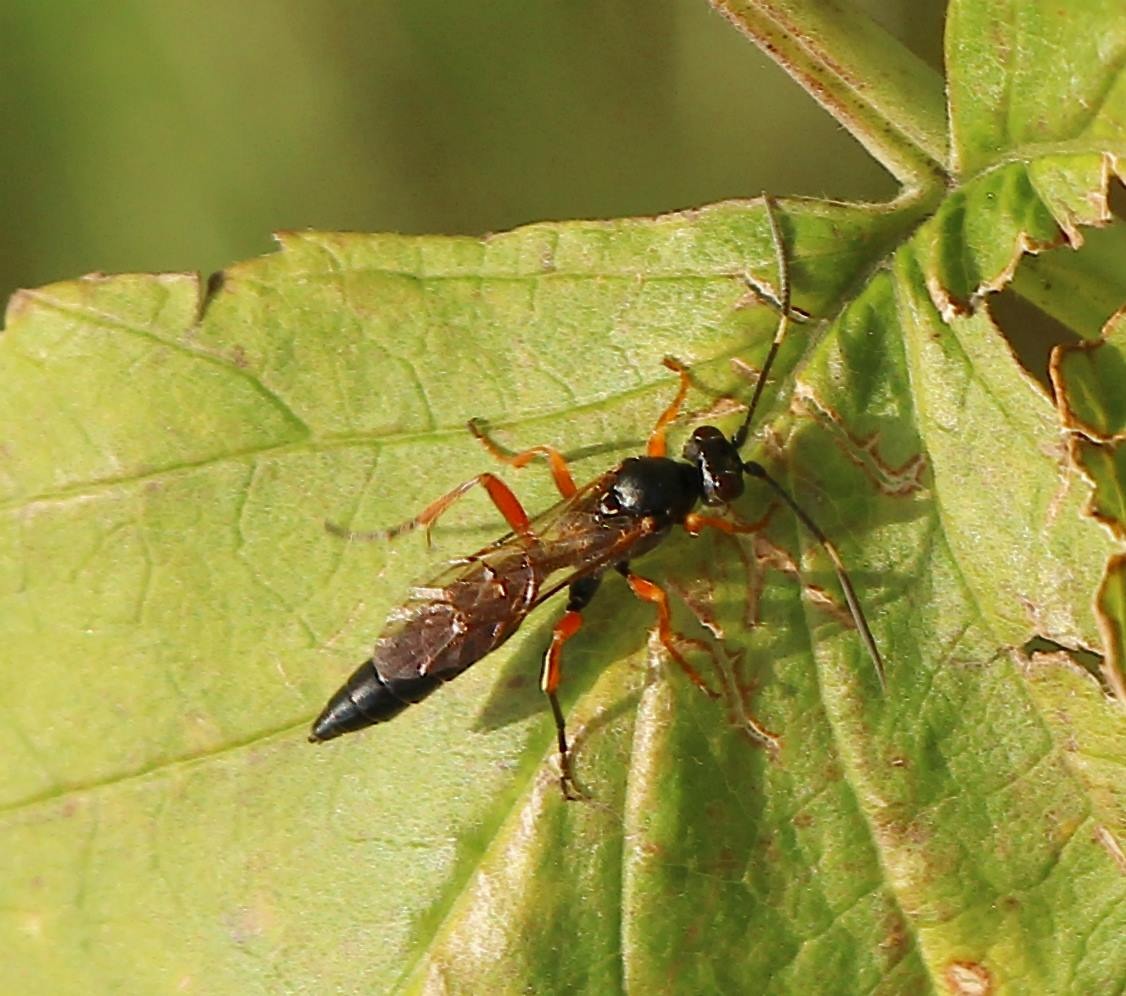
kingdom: Animalia
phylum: Arthropoda
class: Insecta
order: Hymenoptera
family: Ichneumonidae
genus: Syspasis
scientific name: Syspasis
